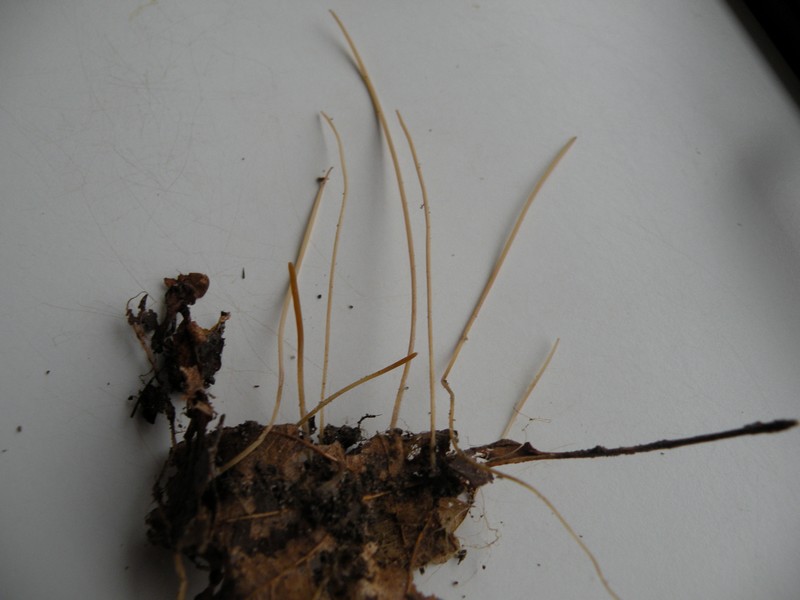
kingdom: Fungi
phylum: Basidiomycota
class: Agaricomycetes
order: Agaricales
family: Typhulaceae
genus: Typhula
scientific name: Typhula juncea
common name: trådagtig rørkølle
